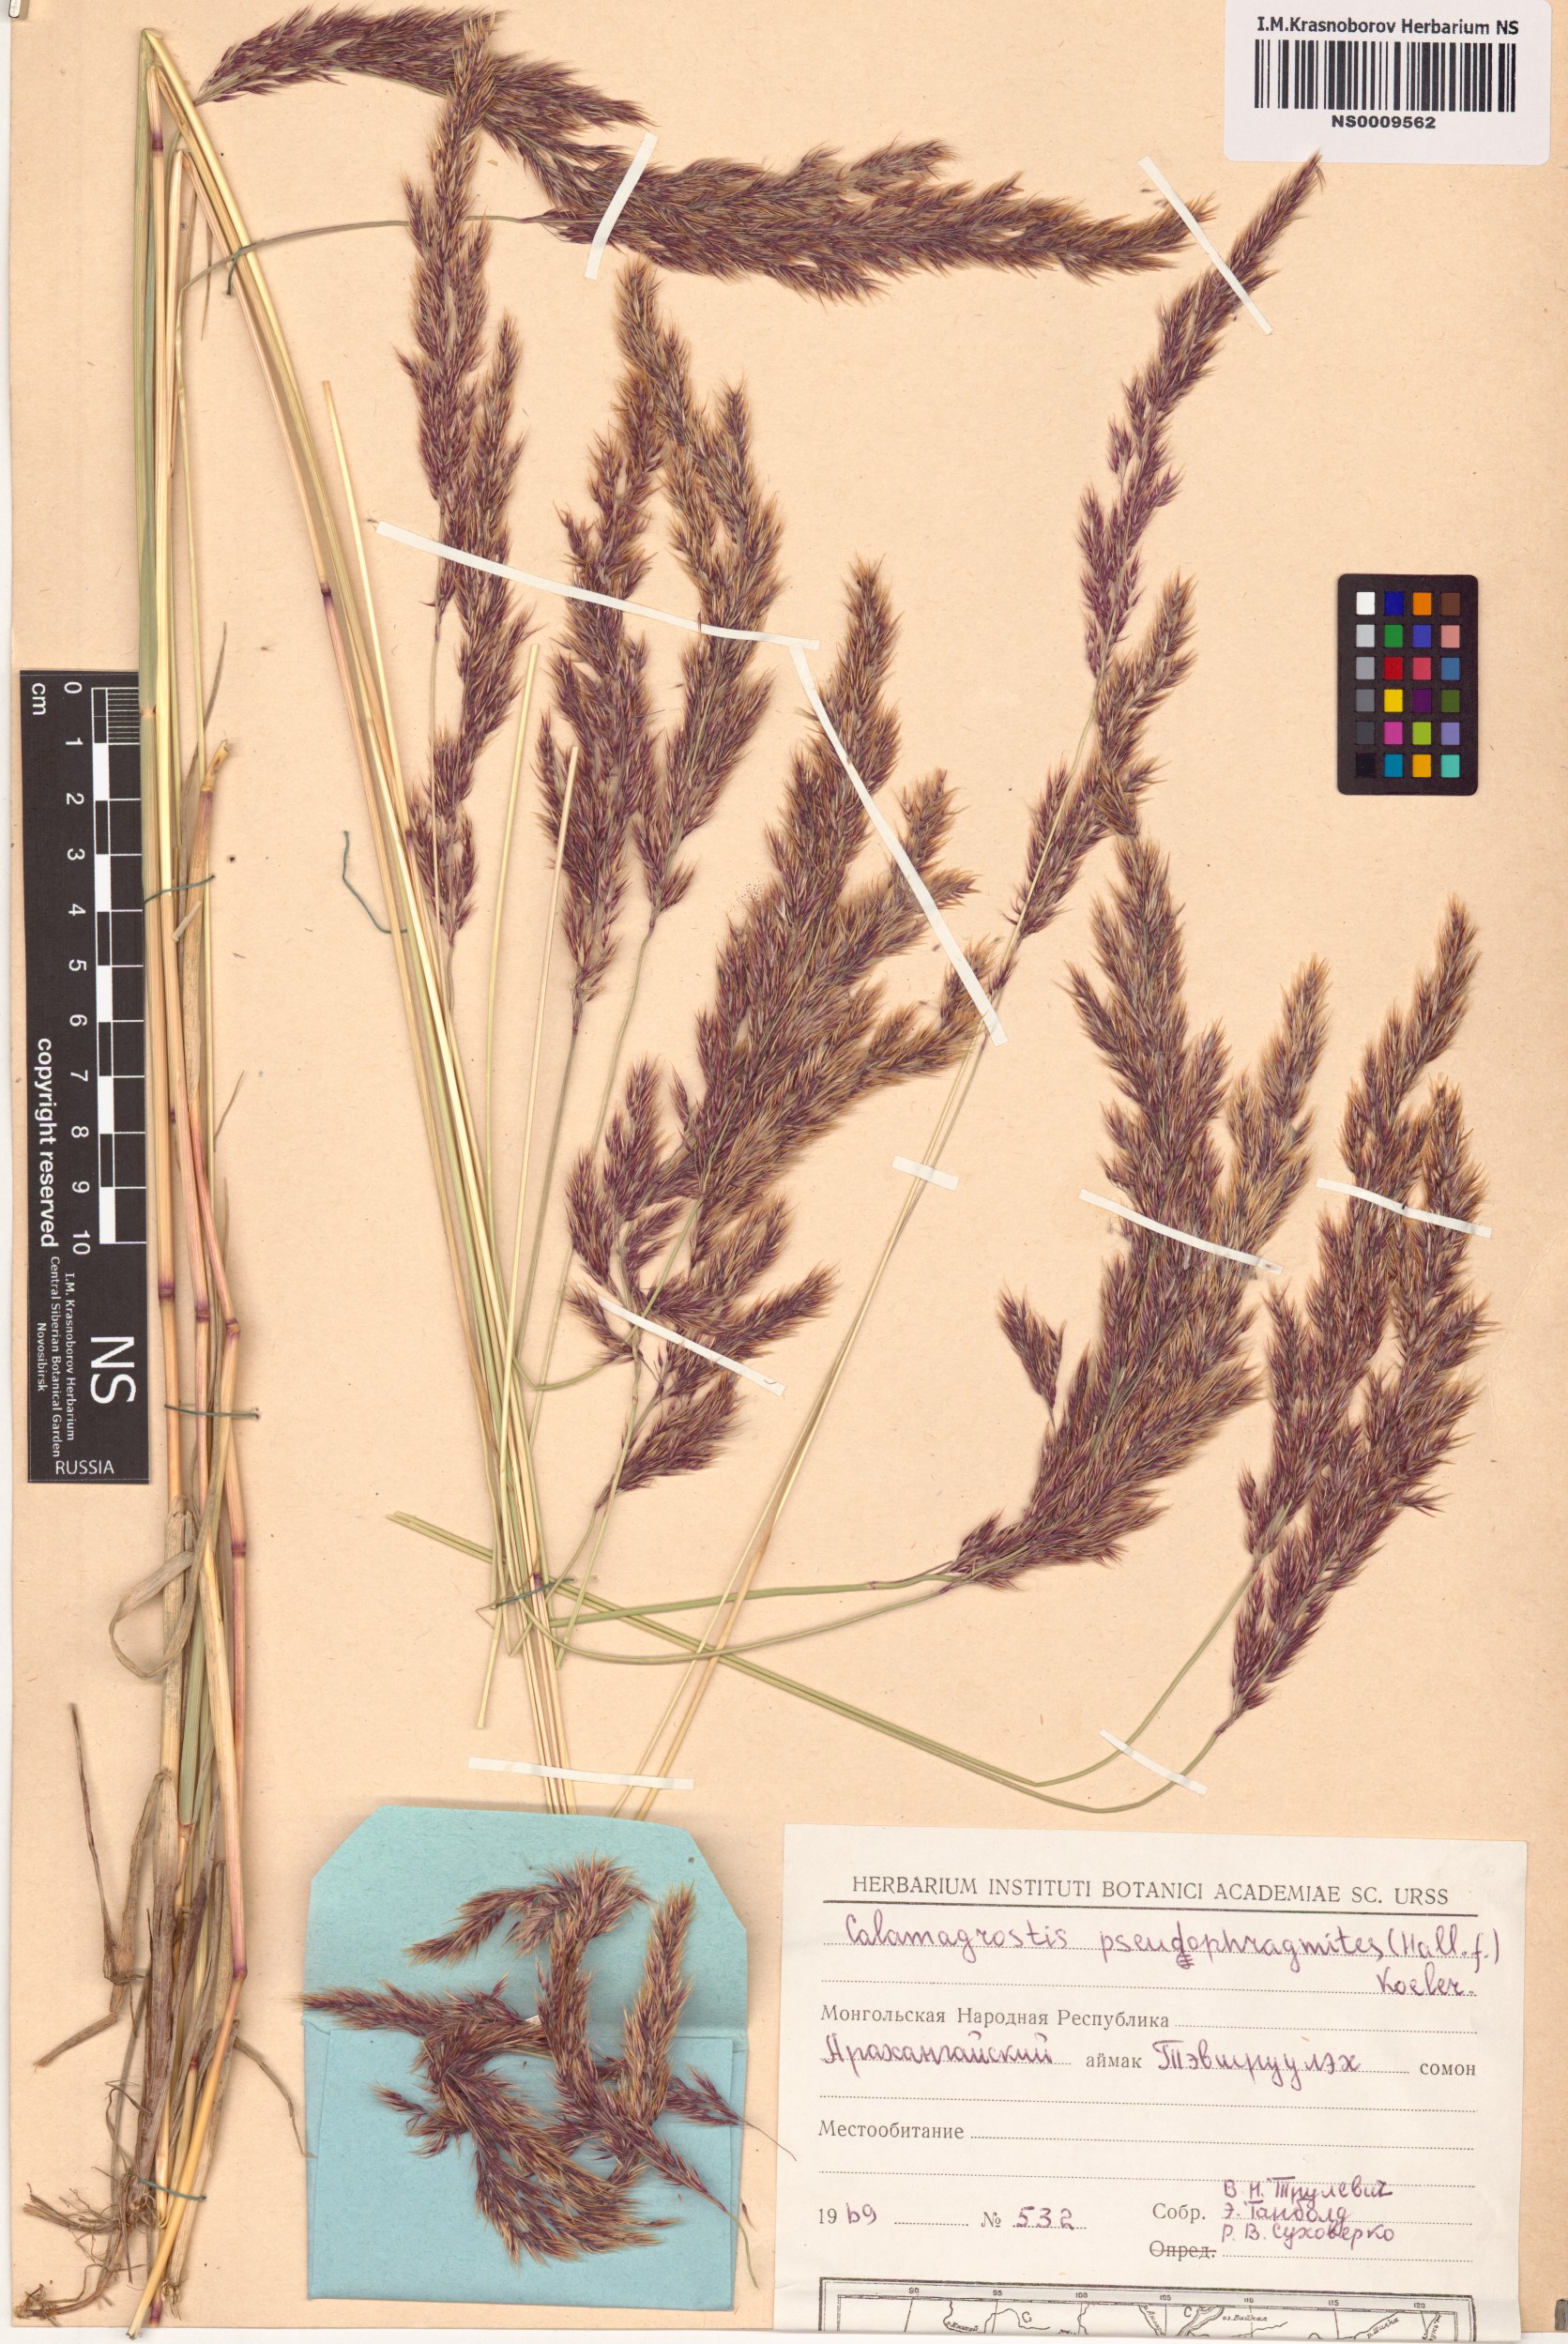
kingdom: Plantae
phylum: Tracheophyta
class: Liliopsida
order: Poales
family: Poaceae
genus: Calamagrostis
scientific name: Calamagrostis pseudophragmites
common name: Coastal small-reed
